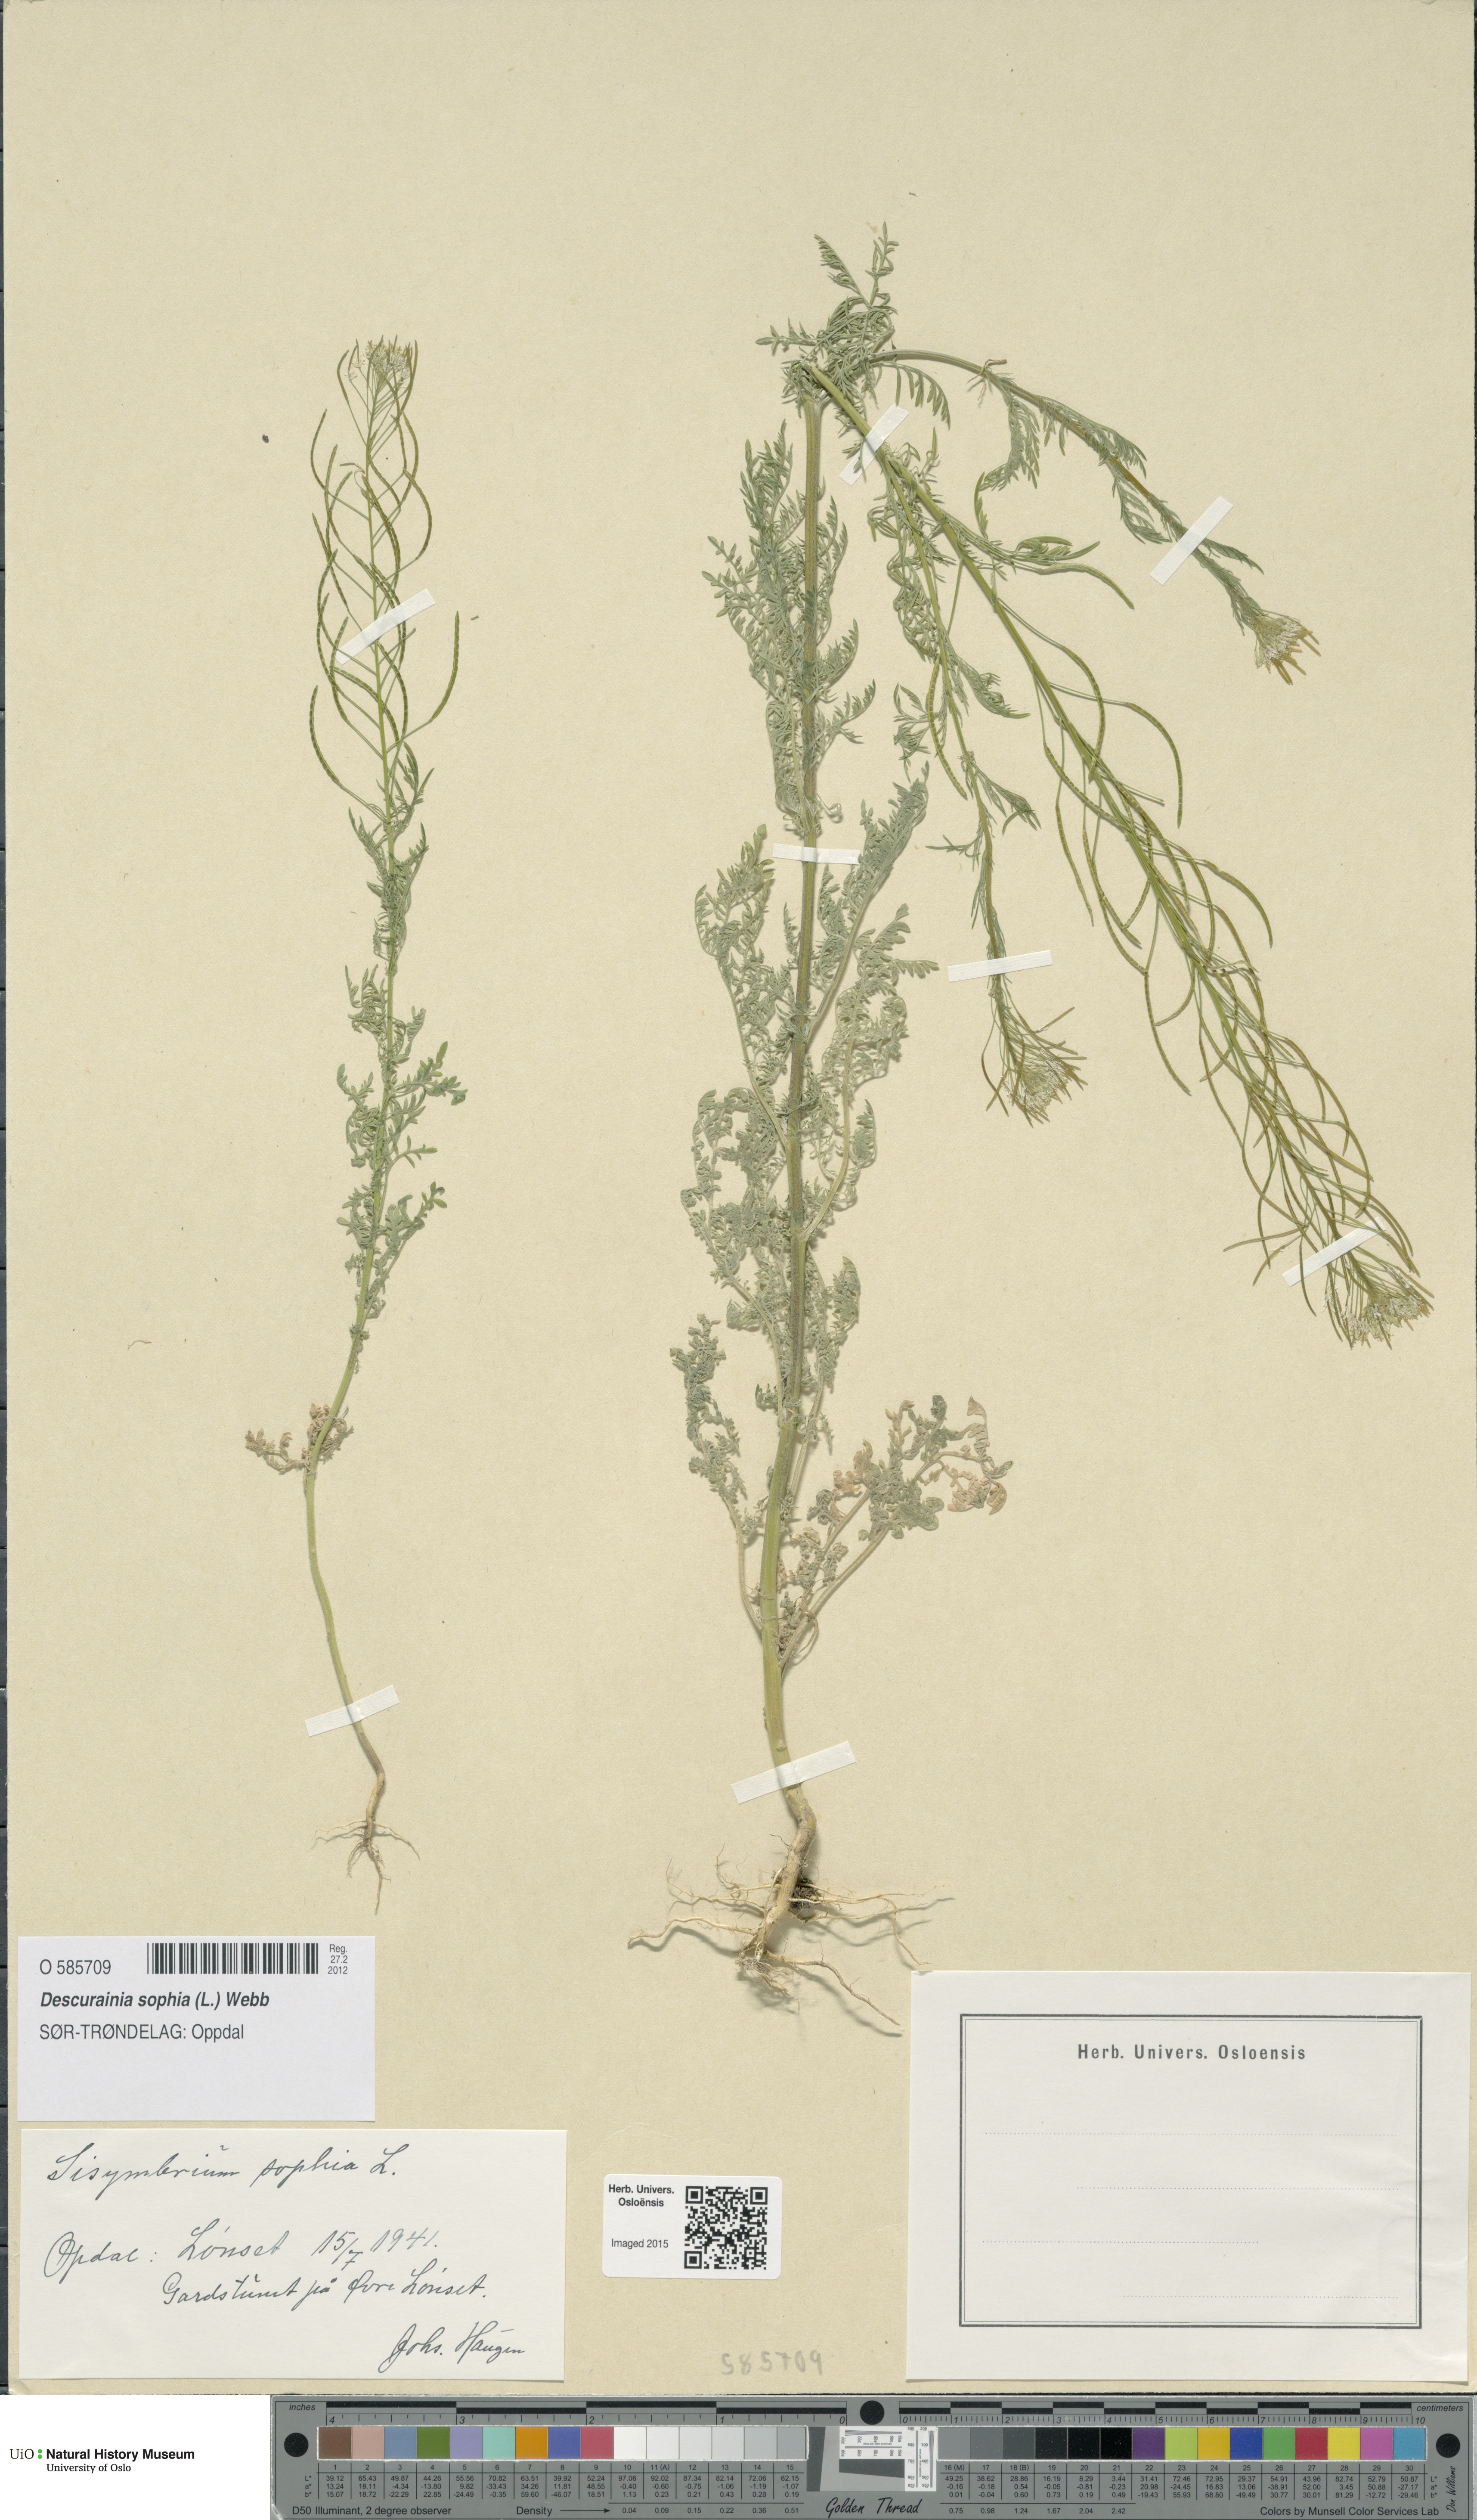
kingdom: Plantae
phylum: Tracheophyta
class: Magnoliopsida
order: Brassicales
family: Brassicaceae
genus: Descurainia
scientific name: Descurainia sophia
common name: Flixweed
